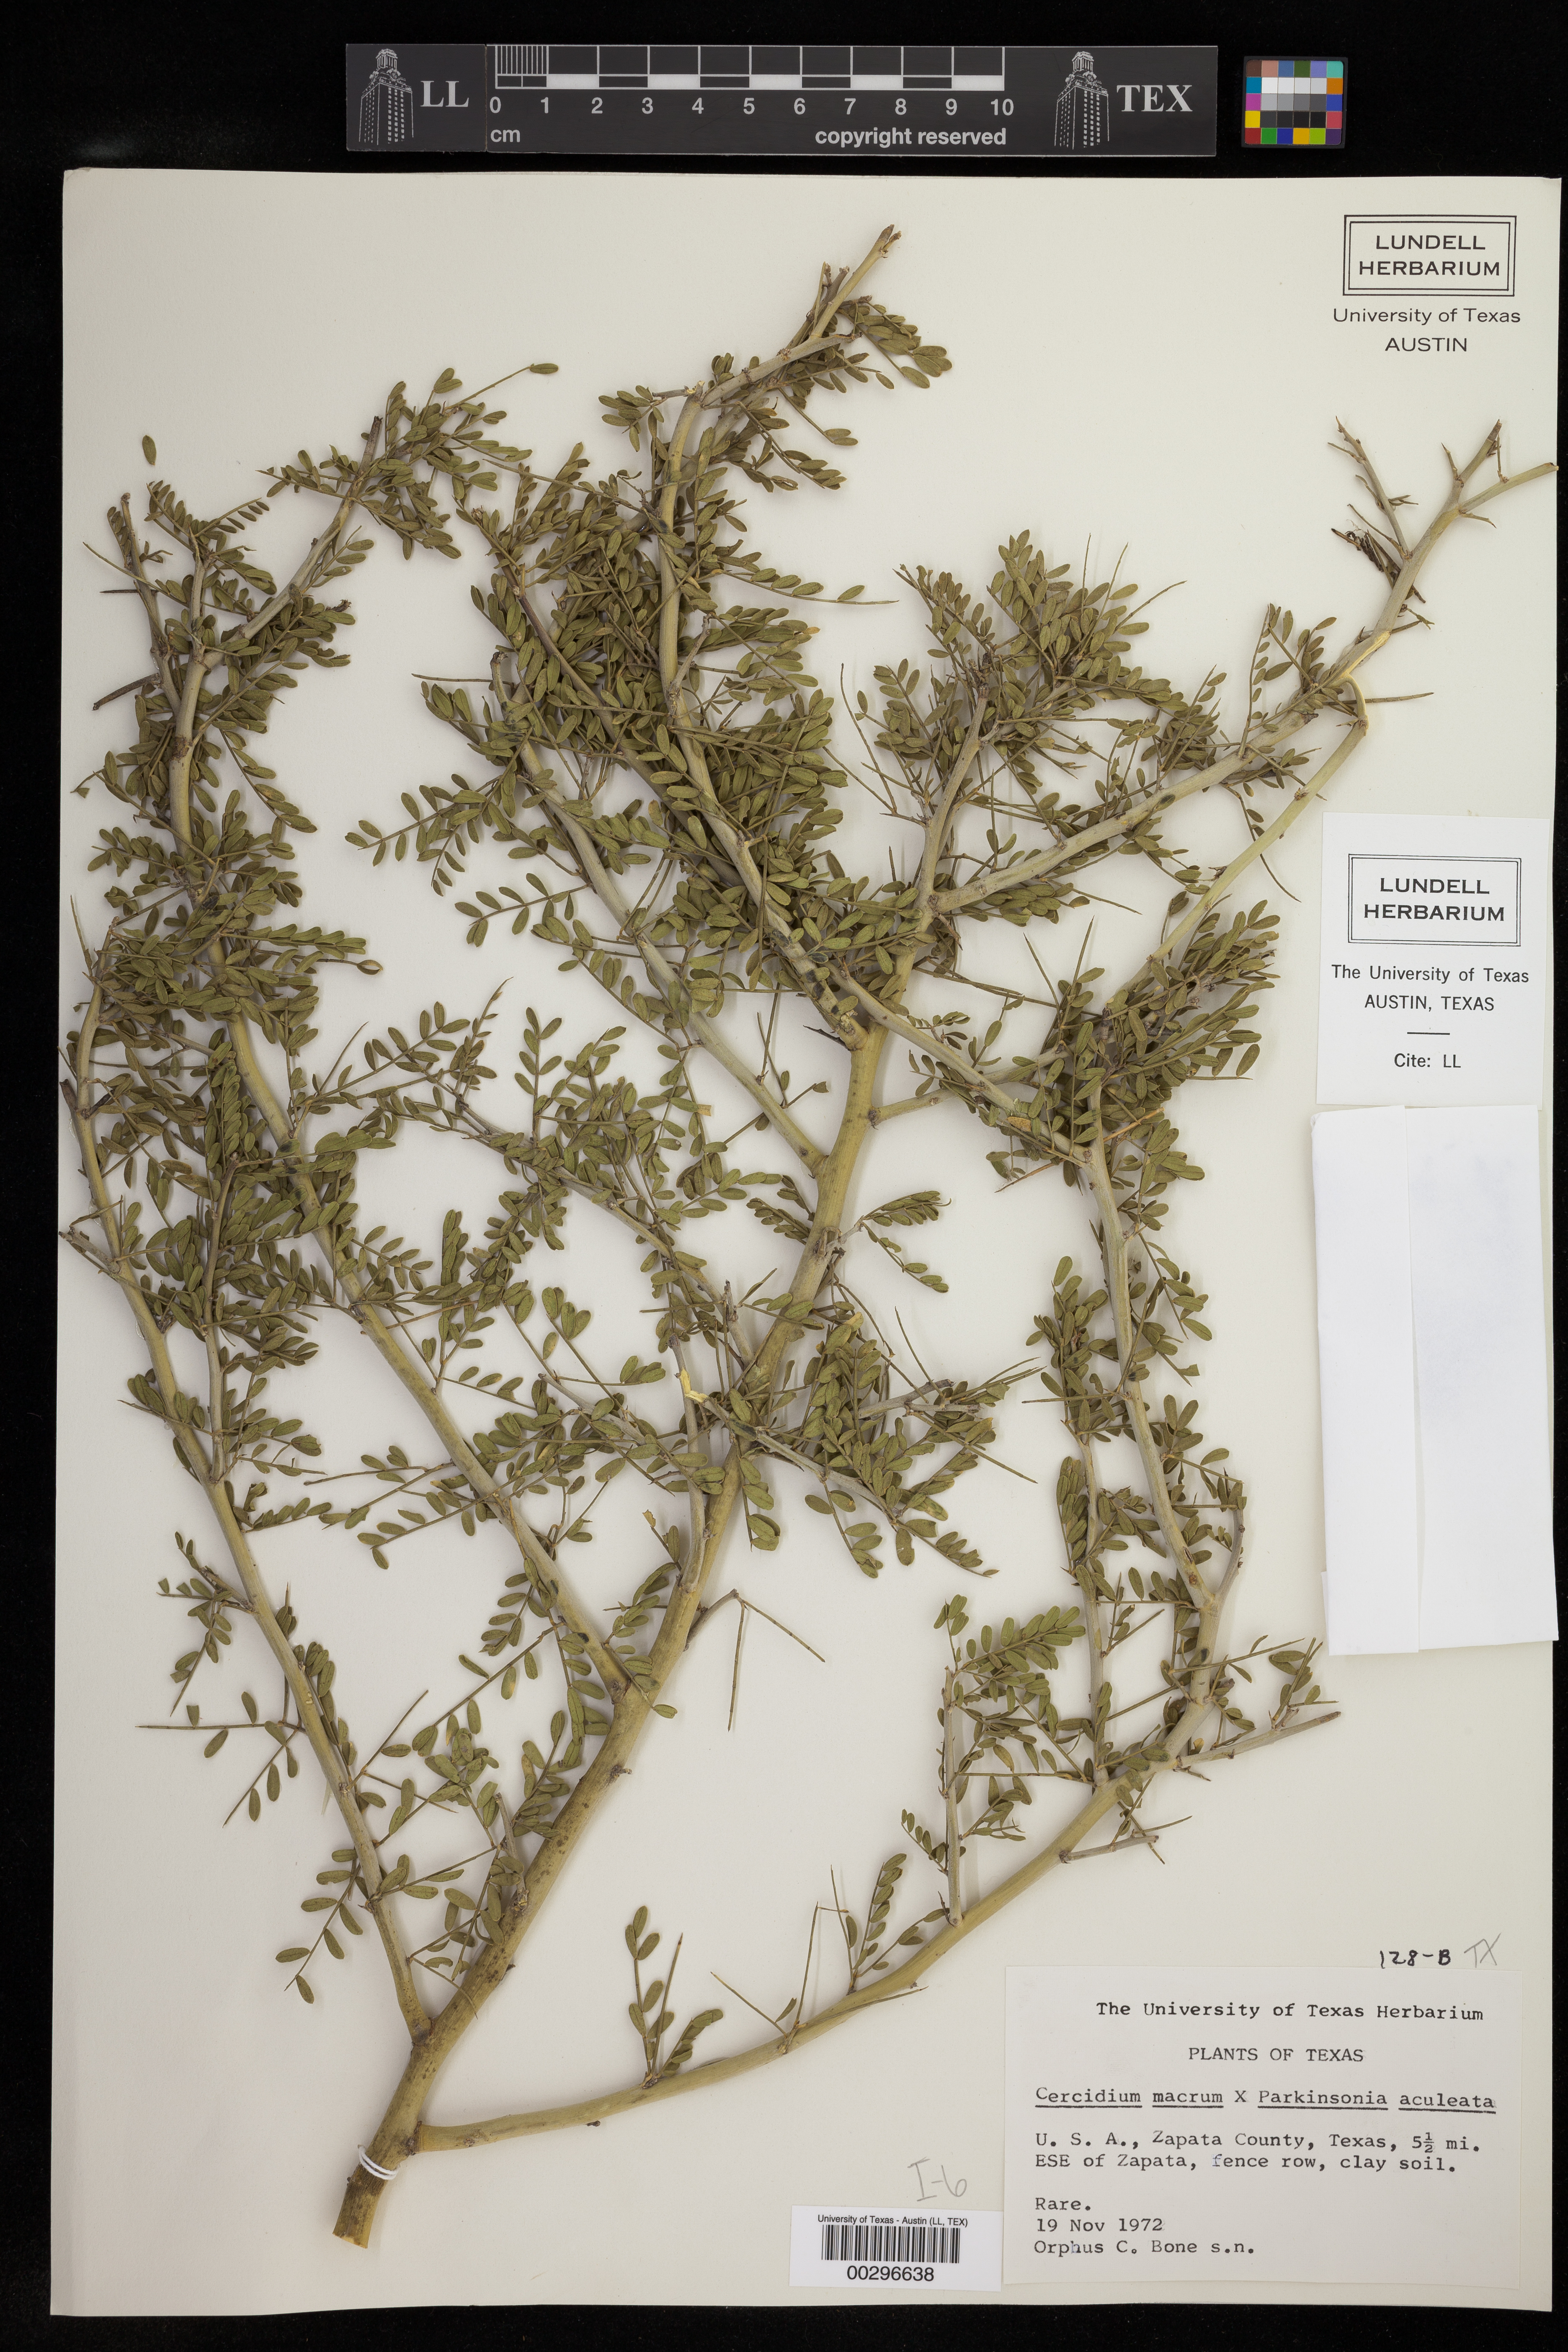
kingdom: Plantae
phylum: Tracheophyta
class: Magnoliopsida
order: Fabales
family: Fabaceae
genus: Parkinsonia
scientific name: Parkinsonia
